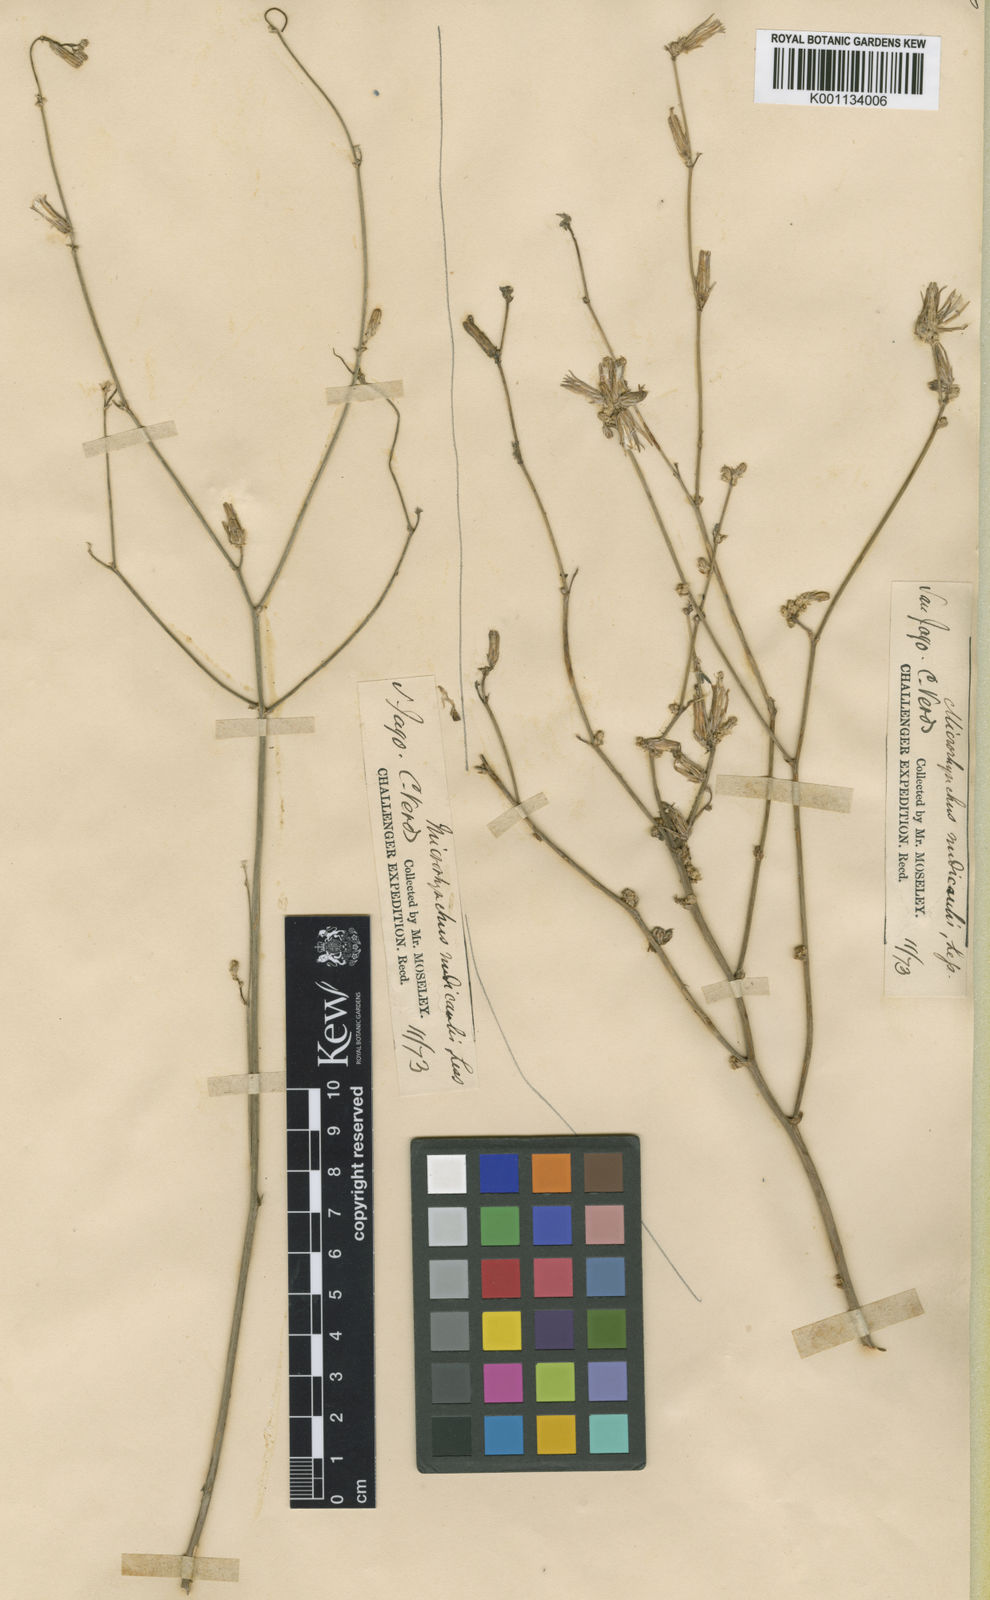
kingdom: Plantae
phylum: Tracheophyta
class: Magnoliopsida
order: Asterales
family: Asteraceae
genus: Launaea
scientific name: Launaea intybacea
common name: Achicoria azul
